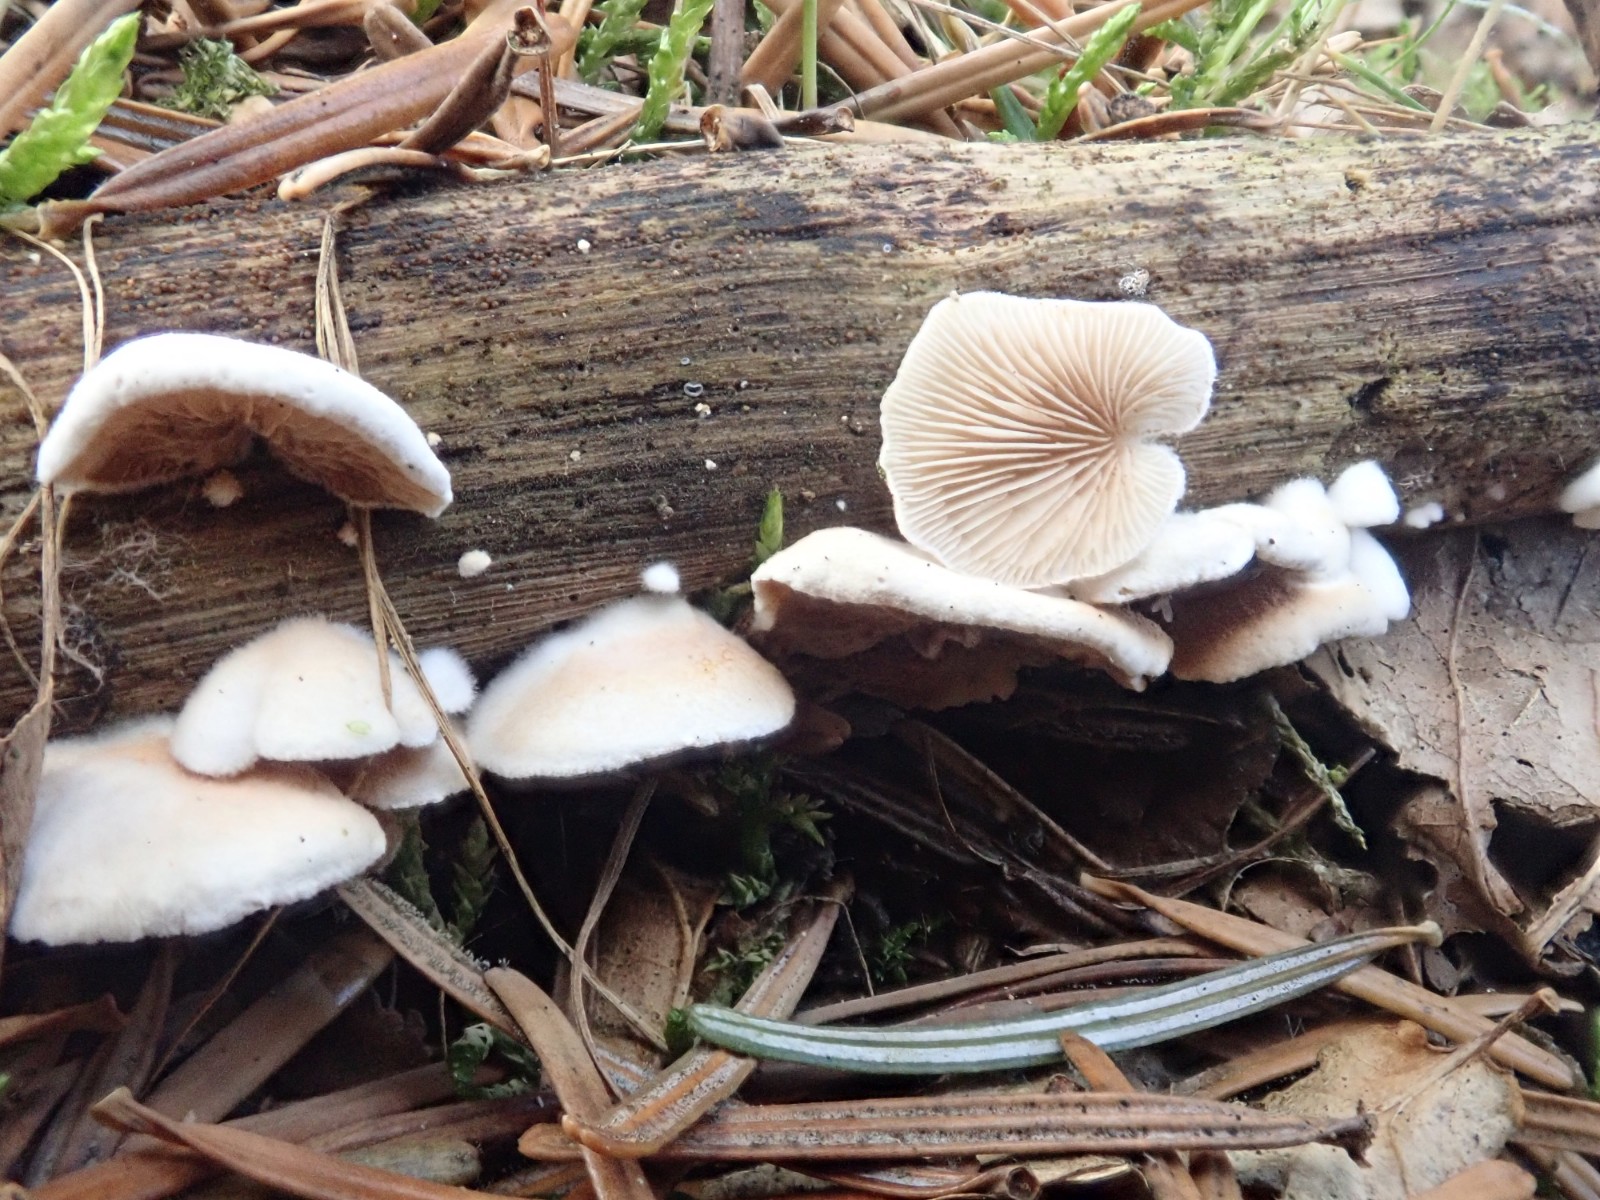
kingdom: Fungi
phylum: Basidiomycota
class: Agaricomycetes
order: Agaricales
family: Crepidotaceae
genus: Crepidotus
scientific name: Crepidotus
